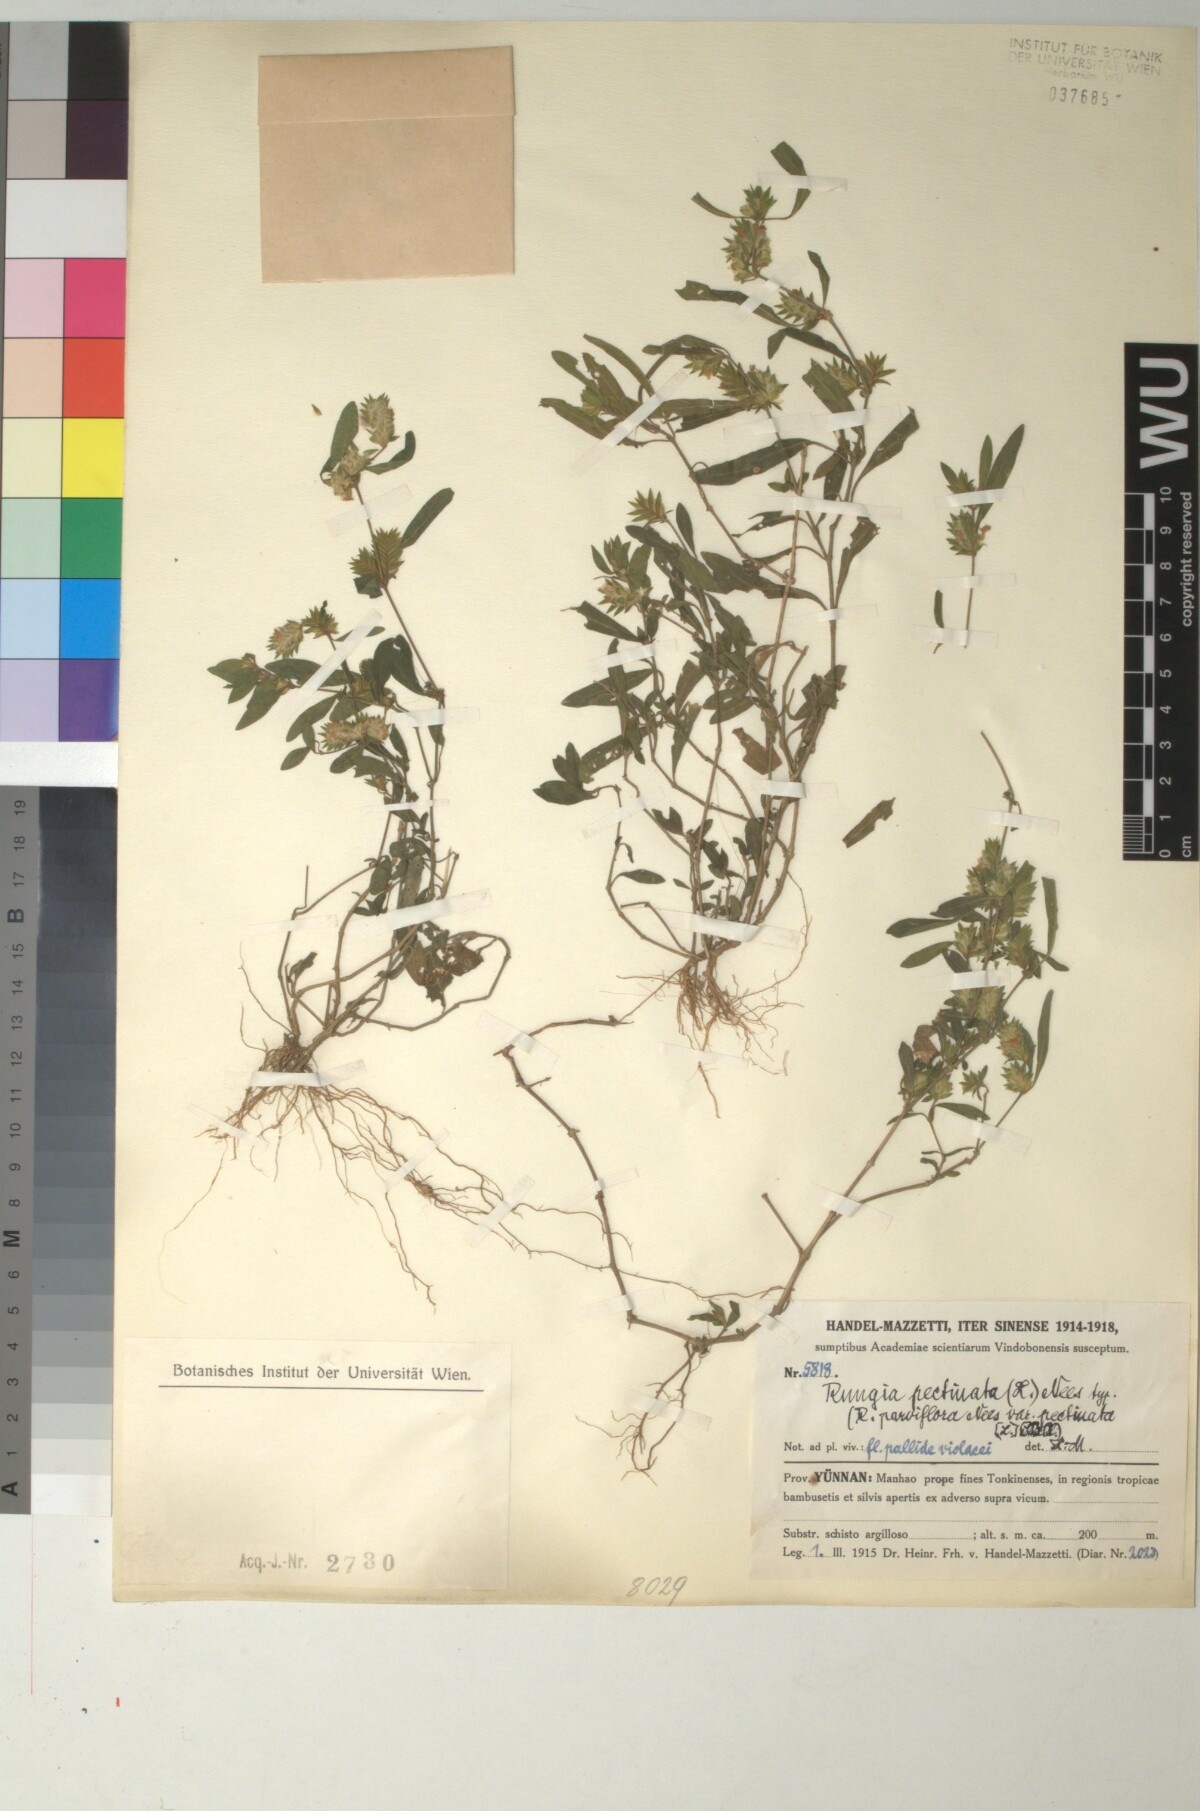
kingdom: Plantae
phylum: Tracheophyta
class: Magnoliopsida
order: Lamiales
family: Acanthaceae
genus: Rungia
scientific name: Rungia pectinata
